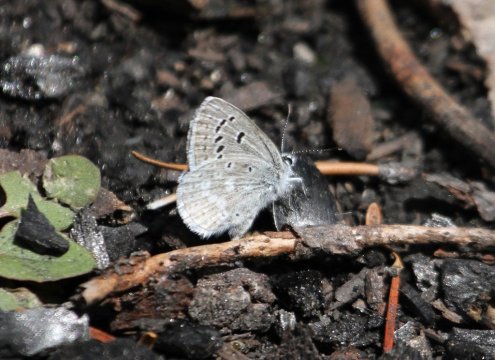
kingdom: Animalia
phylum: Arthropoda
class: Insecta
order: Lepidoptera
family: Lycaenidae
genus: Icaricia
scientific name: Icaricia icarioides
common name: Boisduval's Blue
